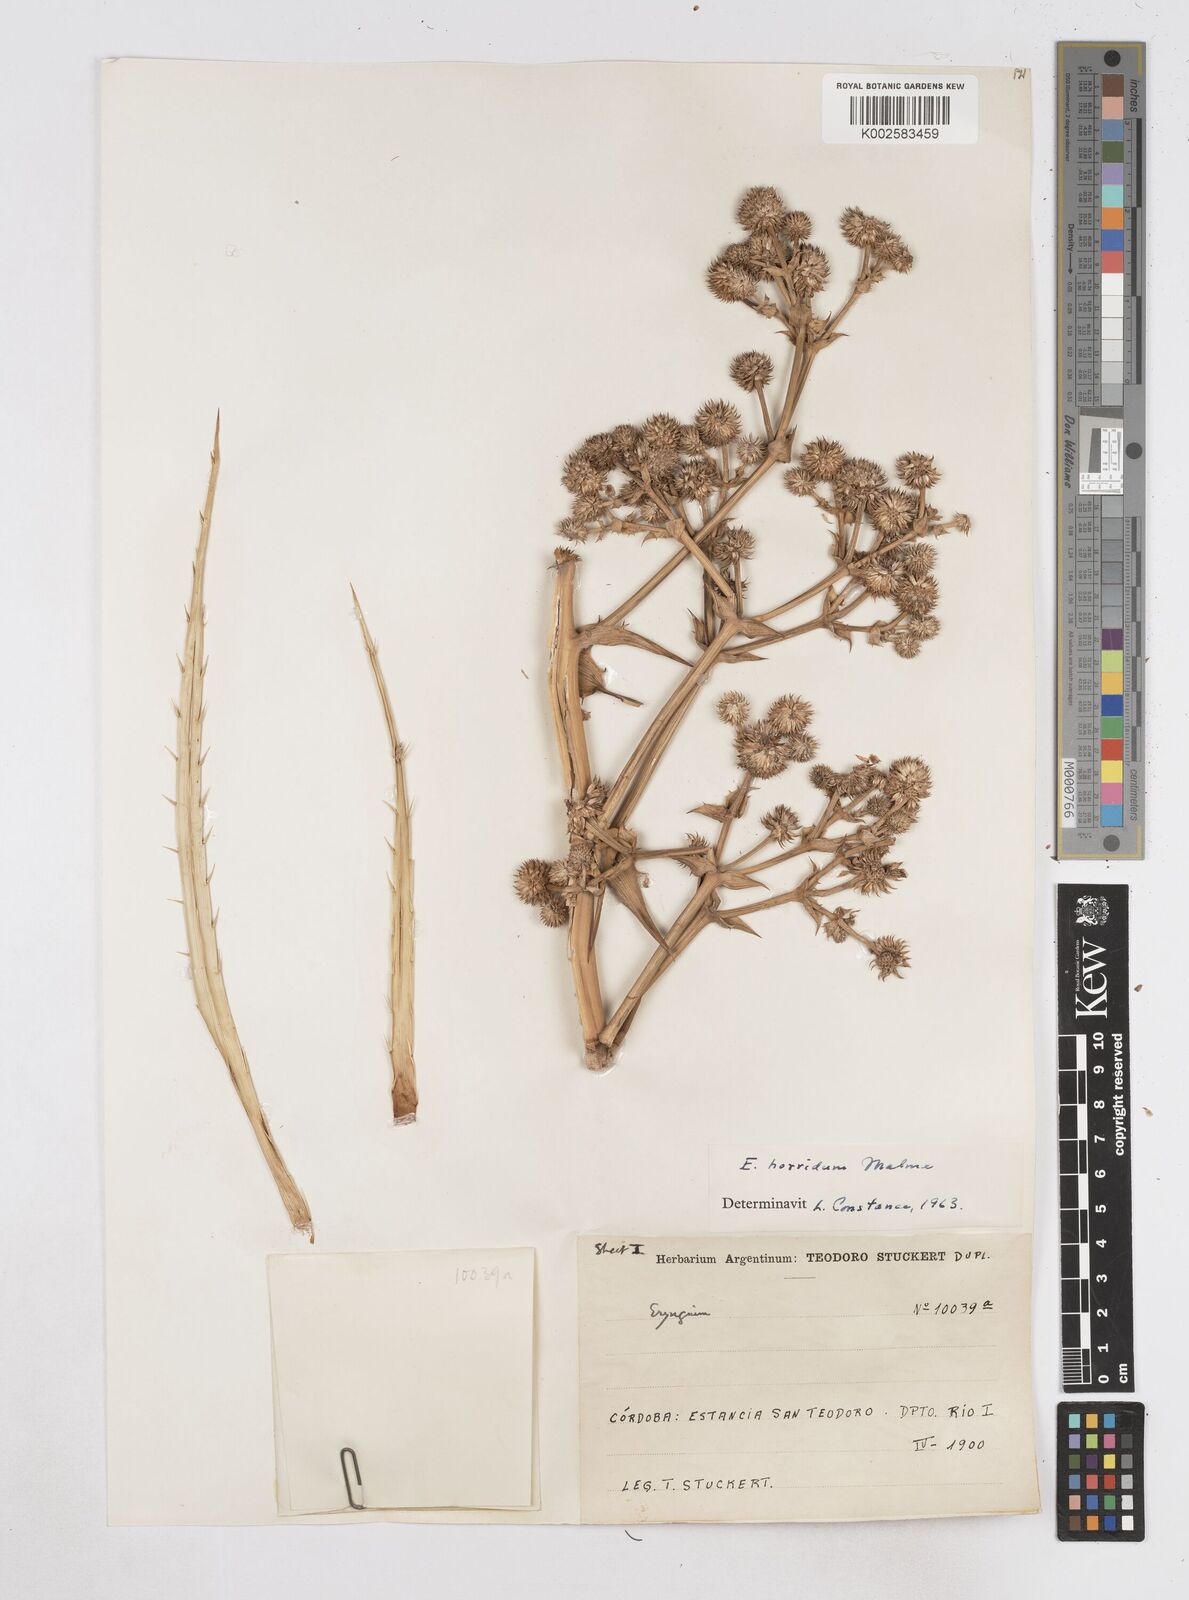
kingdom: Plantae
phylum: Tracheophyta
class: Magnoliopsida
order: Apiales
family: Apiaceae
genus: Eryngium
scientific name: Eryngium horridum
